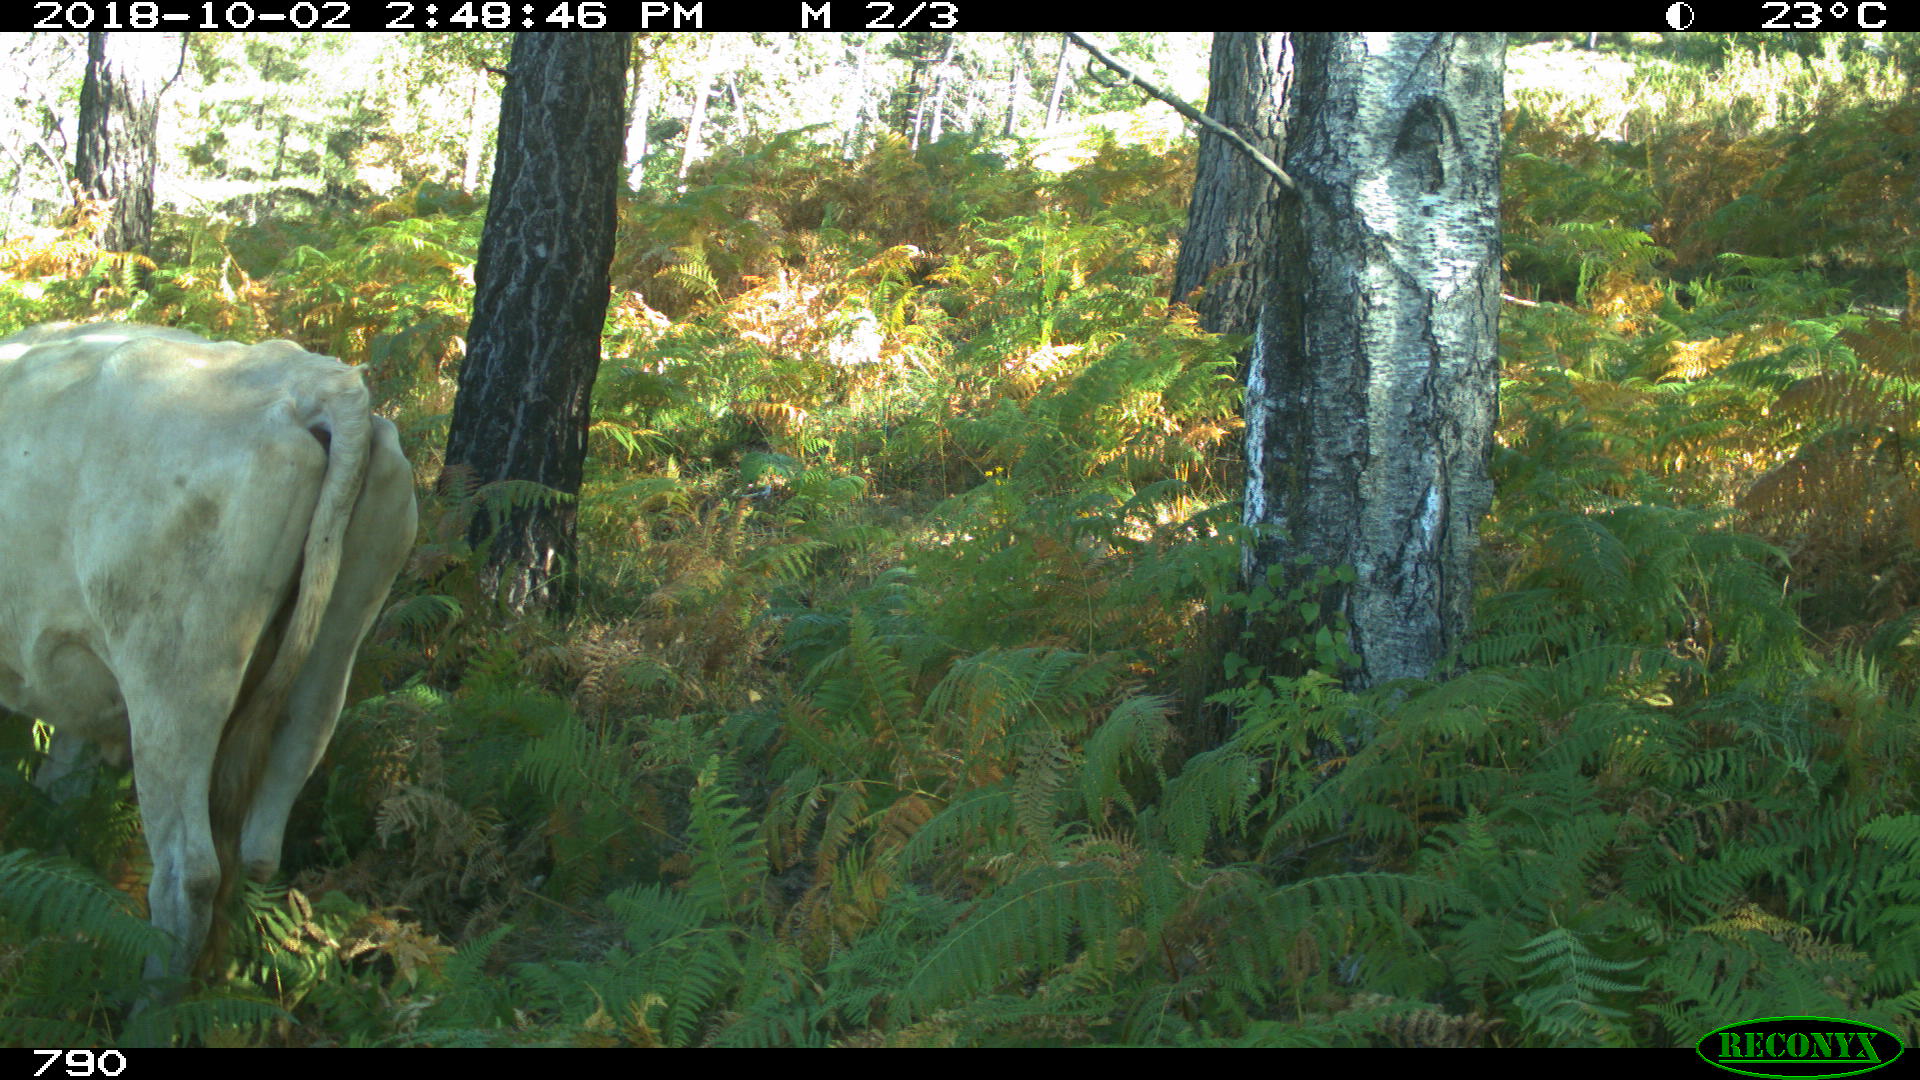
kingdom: Animalia
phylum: Chordata
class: Mammalia
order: Artiodactyla
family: Bovidae
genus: Bos
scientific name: Bos taurus
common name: Domesticated cattle
